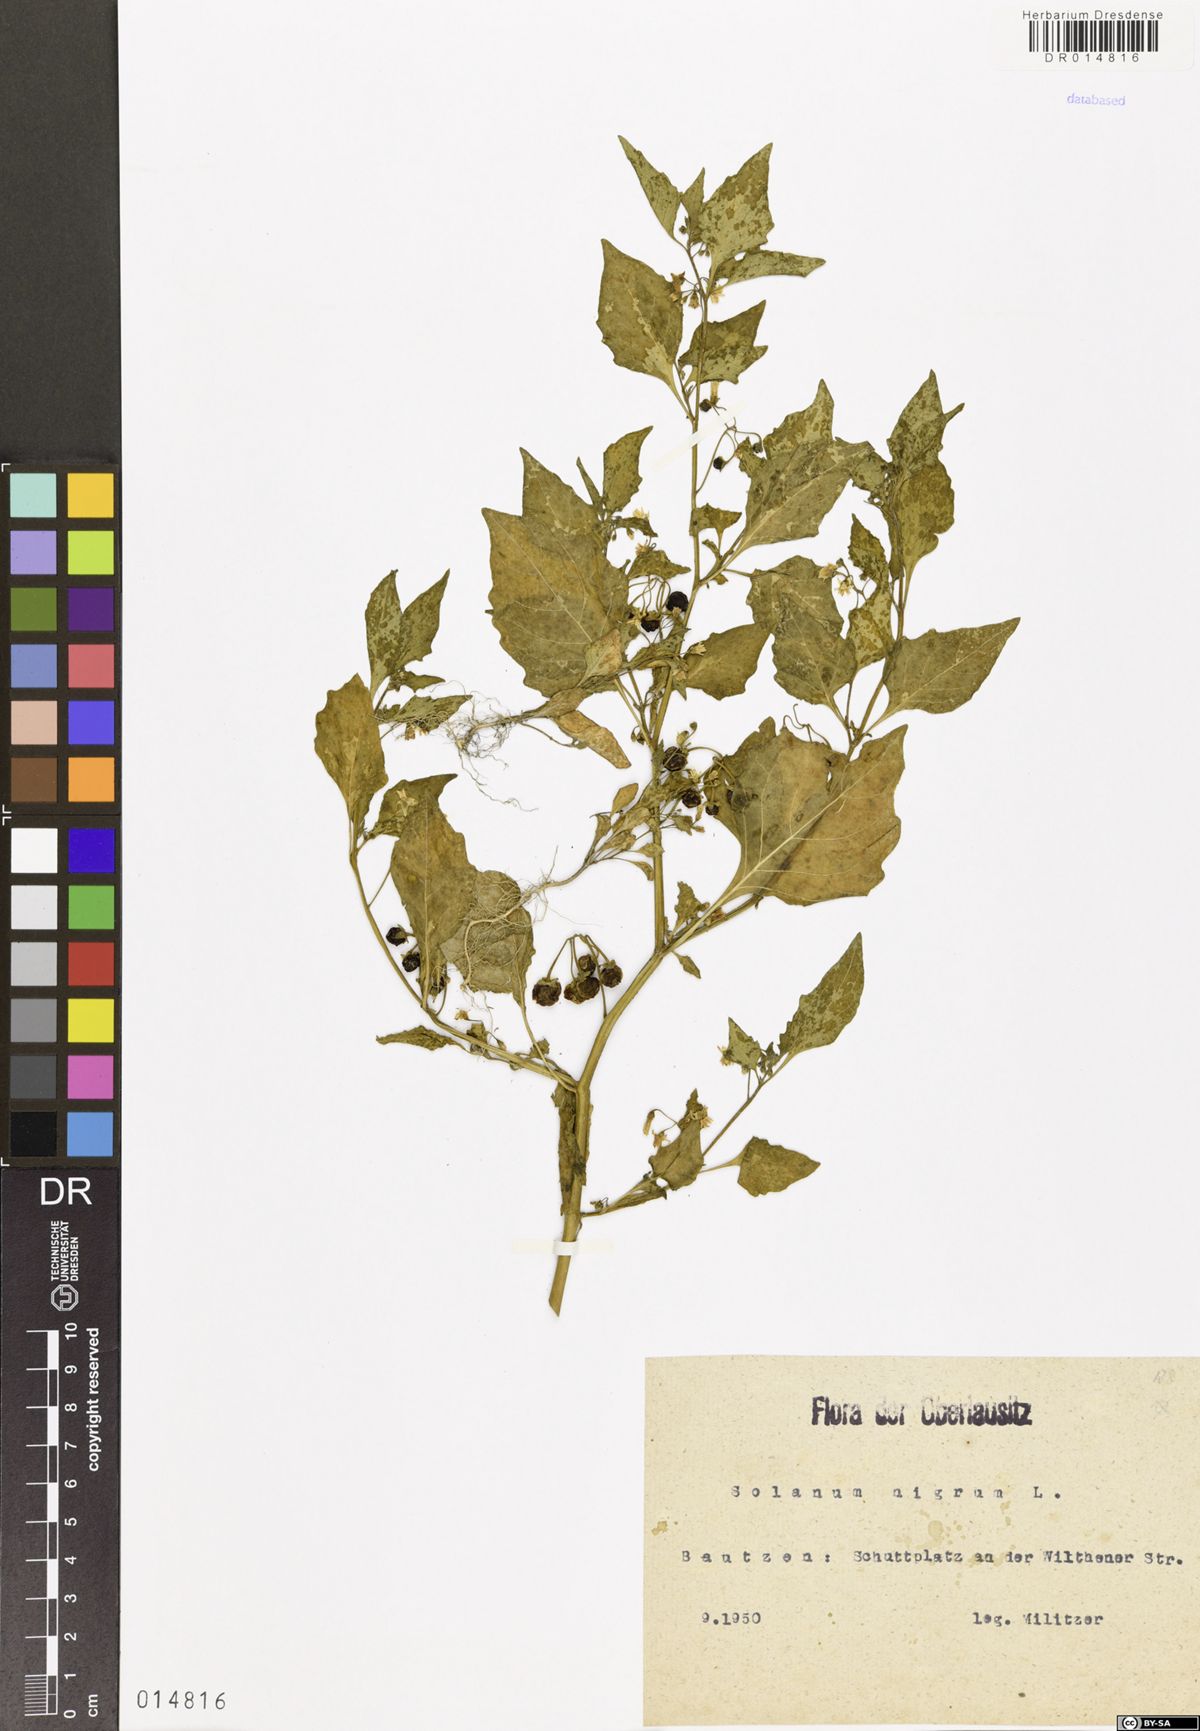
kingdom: Plantae
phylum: Tracheophyta
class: Magnoliopsida
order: Solanales
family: Solanaceae
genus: Solanum
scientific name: Solanum nigrum
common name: Black nightshade
